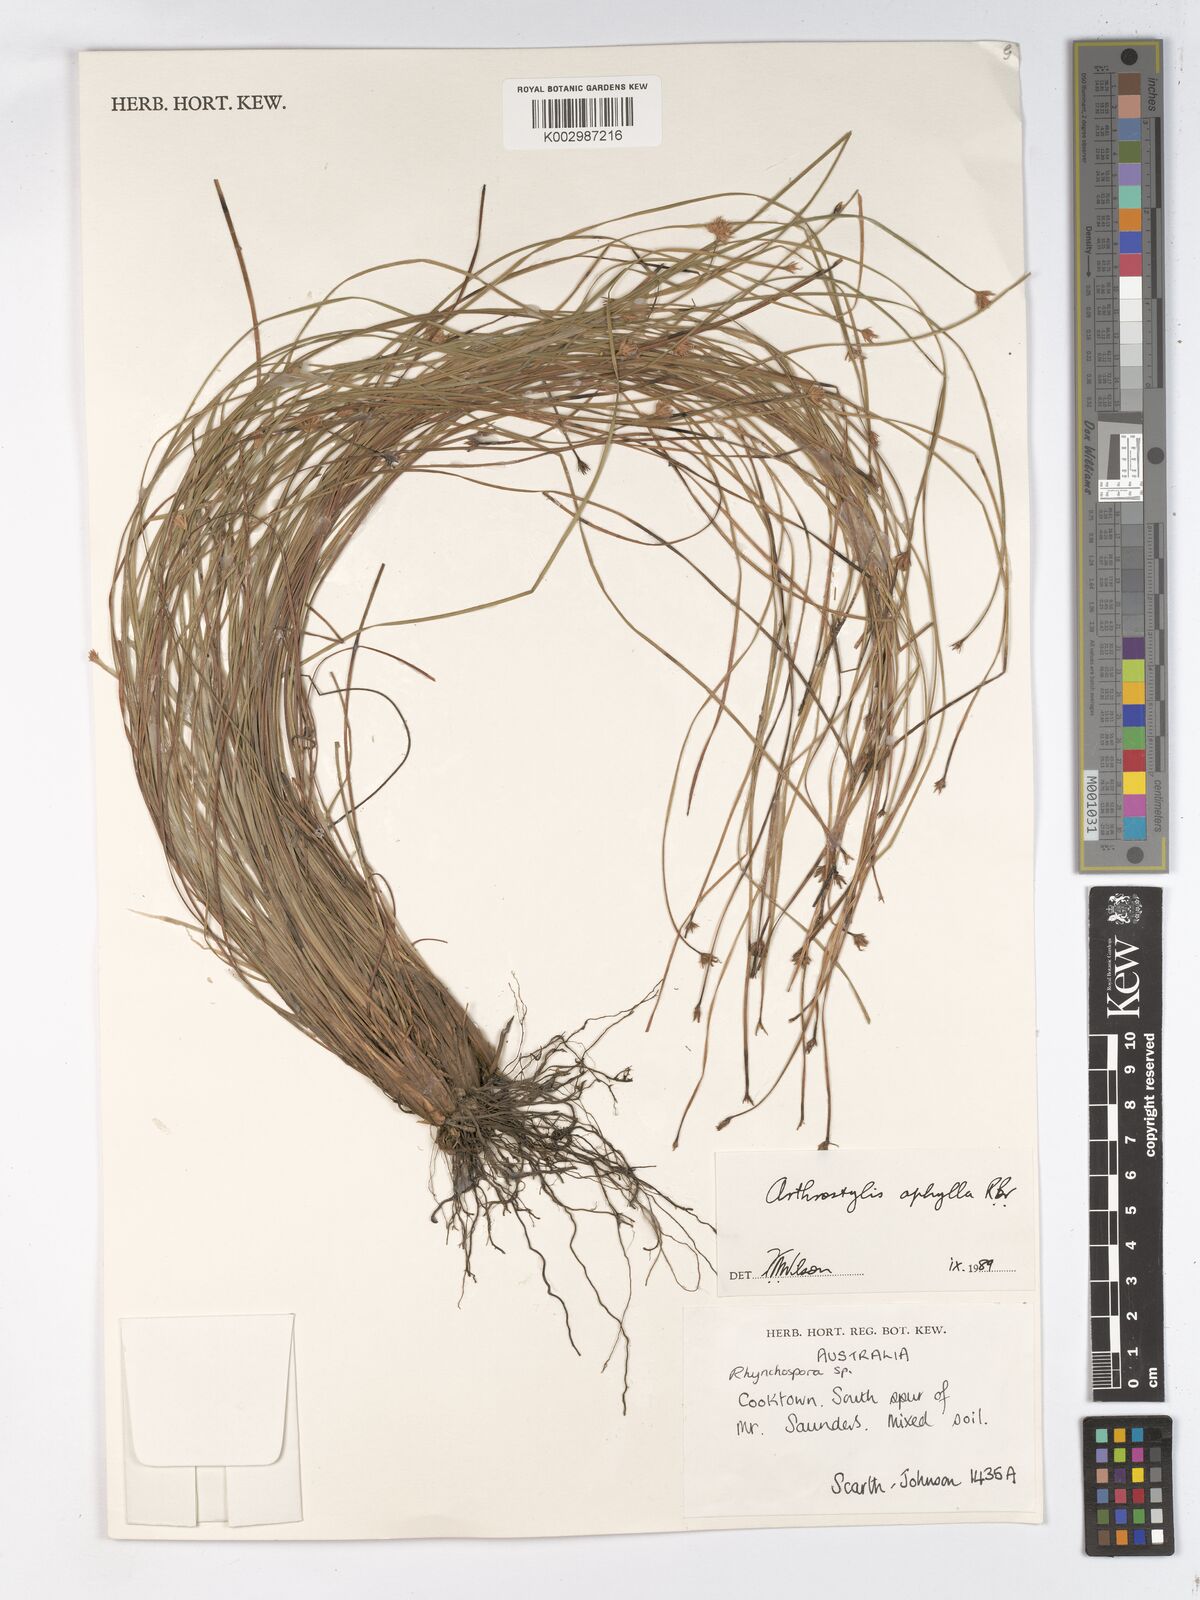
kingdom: Plantae
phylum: Tracheophyta
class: Liliopsida
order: Poales
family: Cyperaceae
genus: Arthrostylis
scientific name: Arthrostylis aphylla
